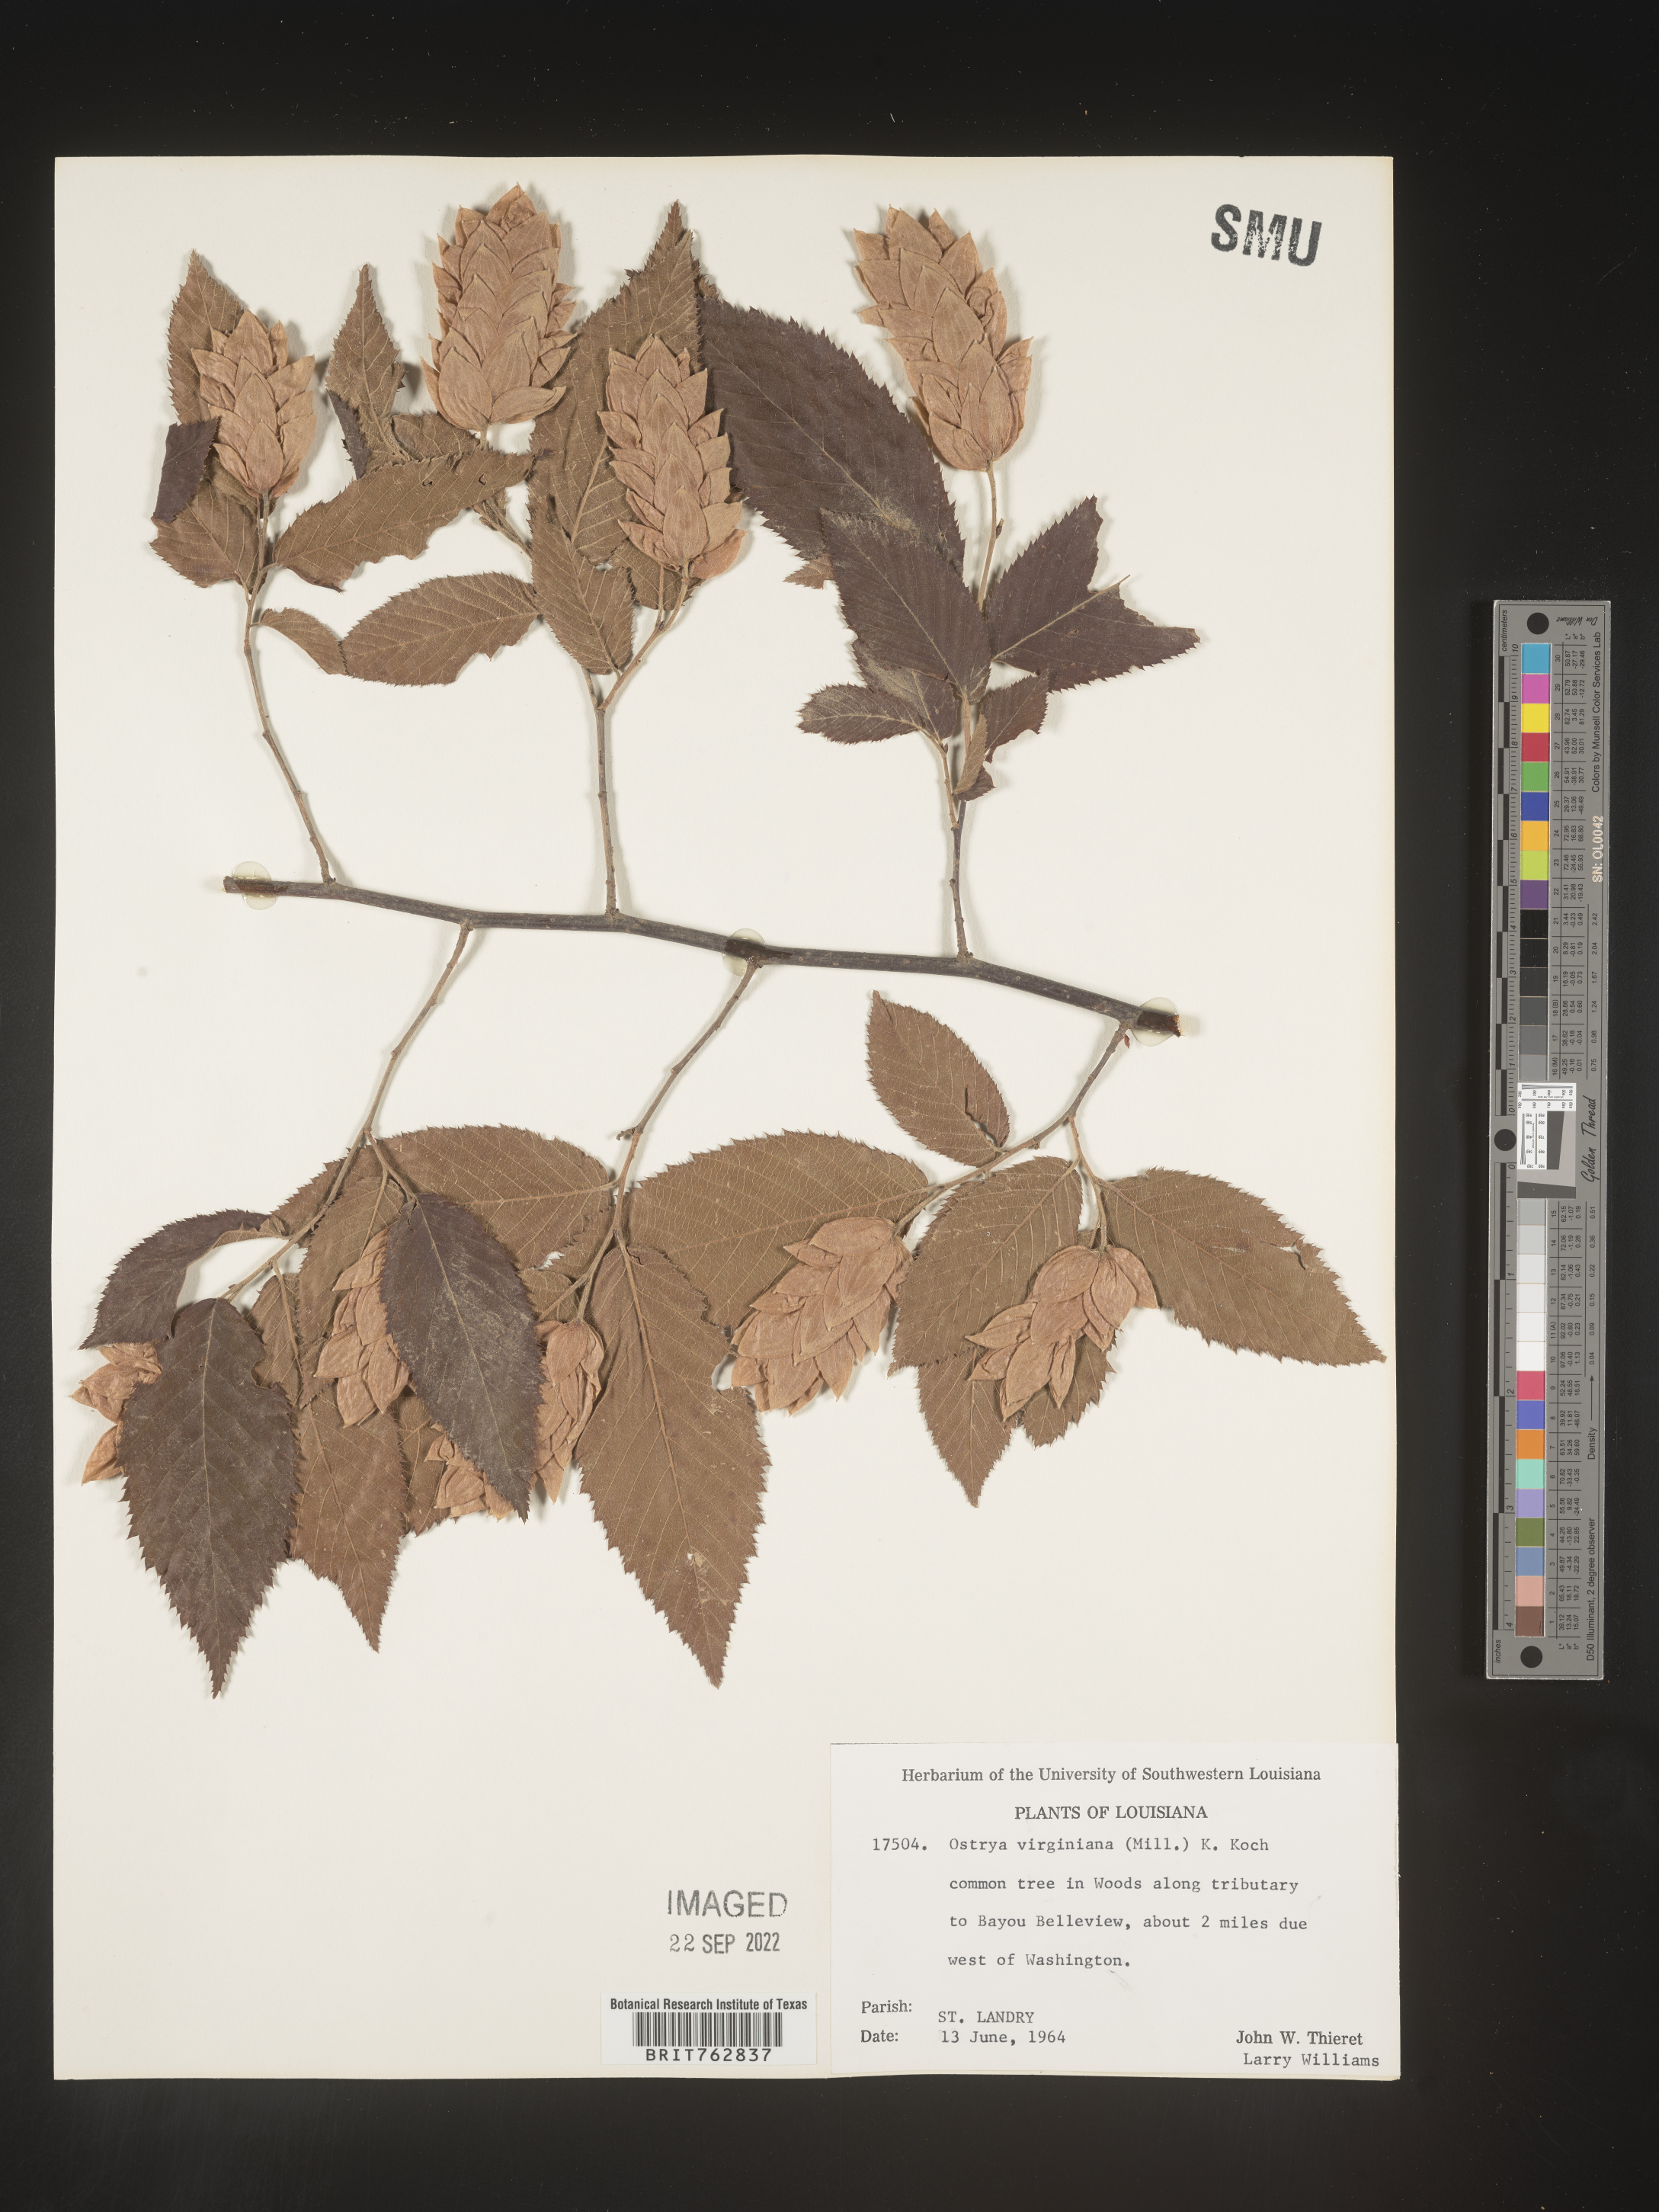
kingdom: Plantae
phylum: Tracheophyta
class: Magnoliopsida
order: Fagales
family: Betulaceae
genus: Ostrya
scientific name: Ostrya virginiana
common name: Ironwood
